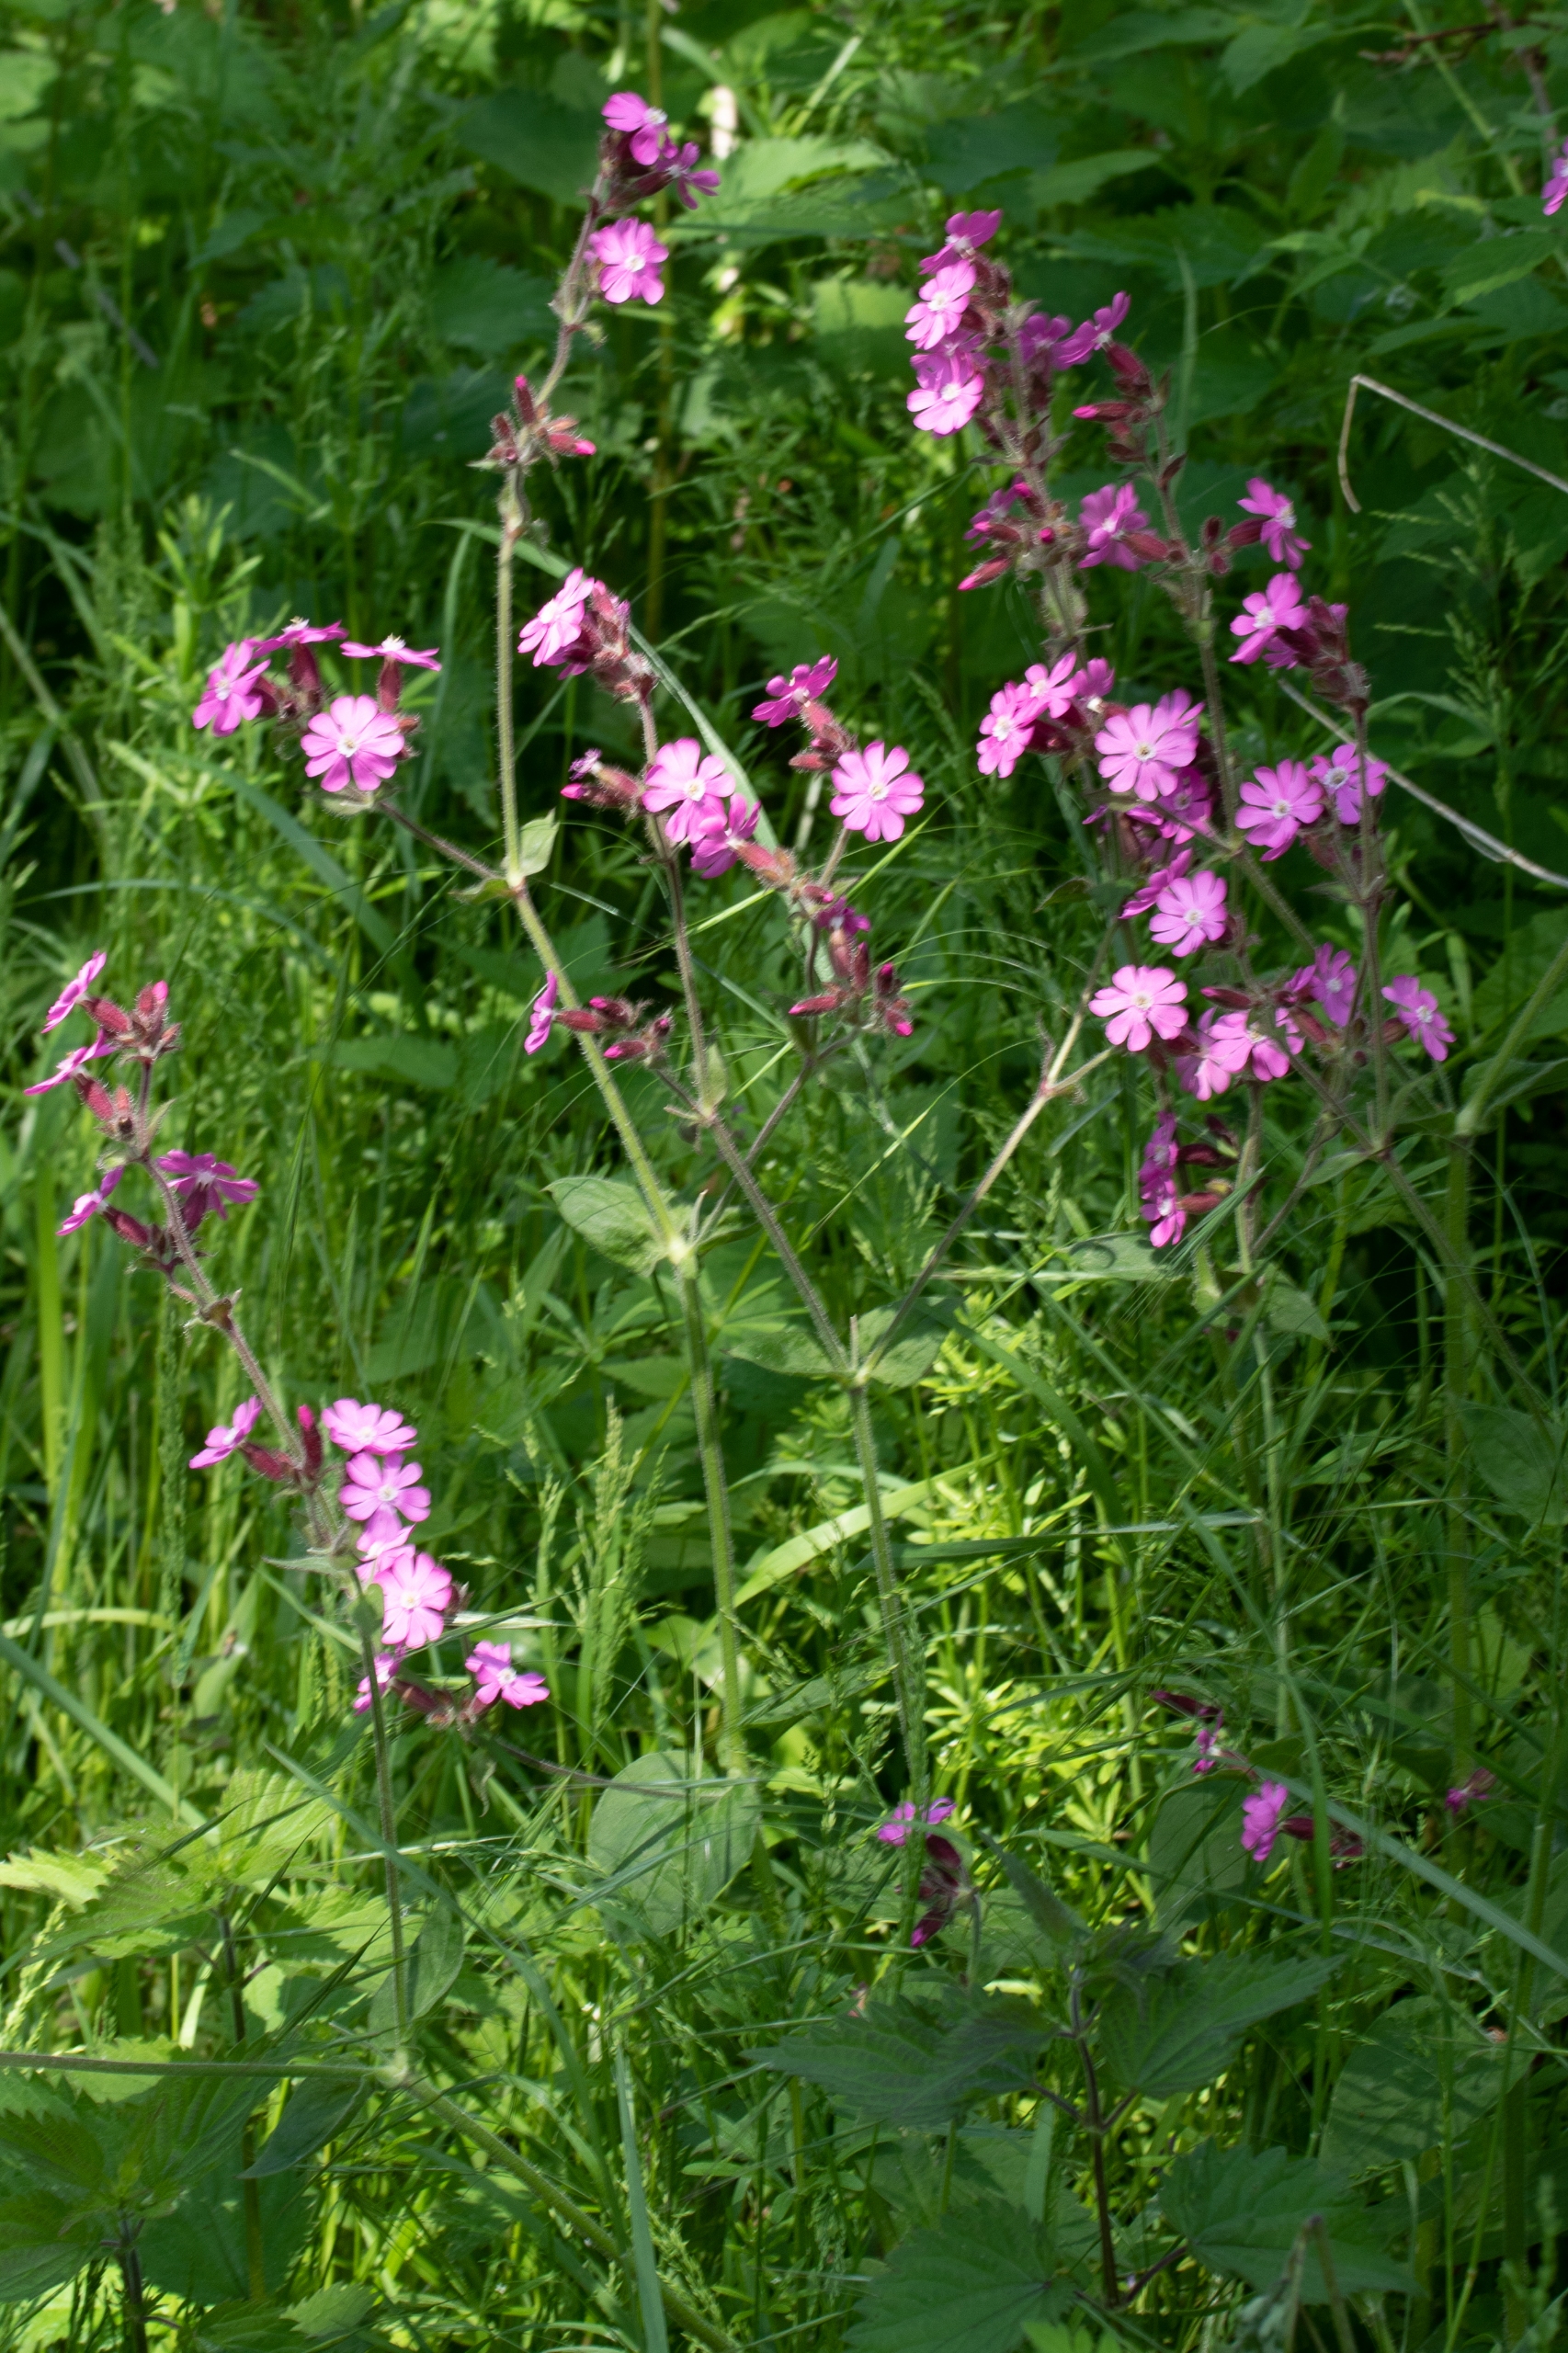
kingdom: Plantae
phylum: Tracheophyta
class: Magnoliopsida
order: Caryophyllales
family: Caryophyllaceae
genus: Silene
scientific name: Silene dioica
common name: Dagpragtstjerne
